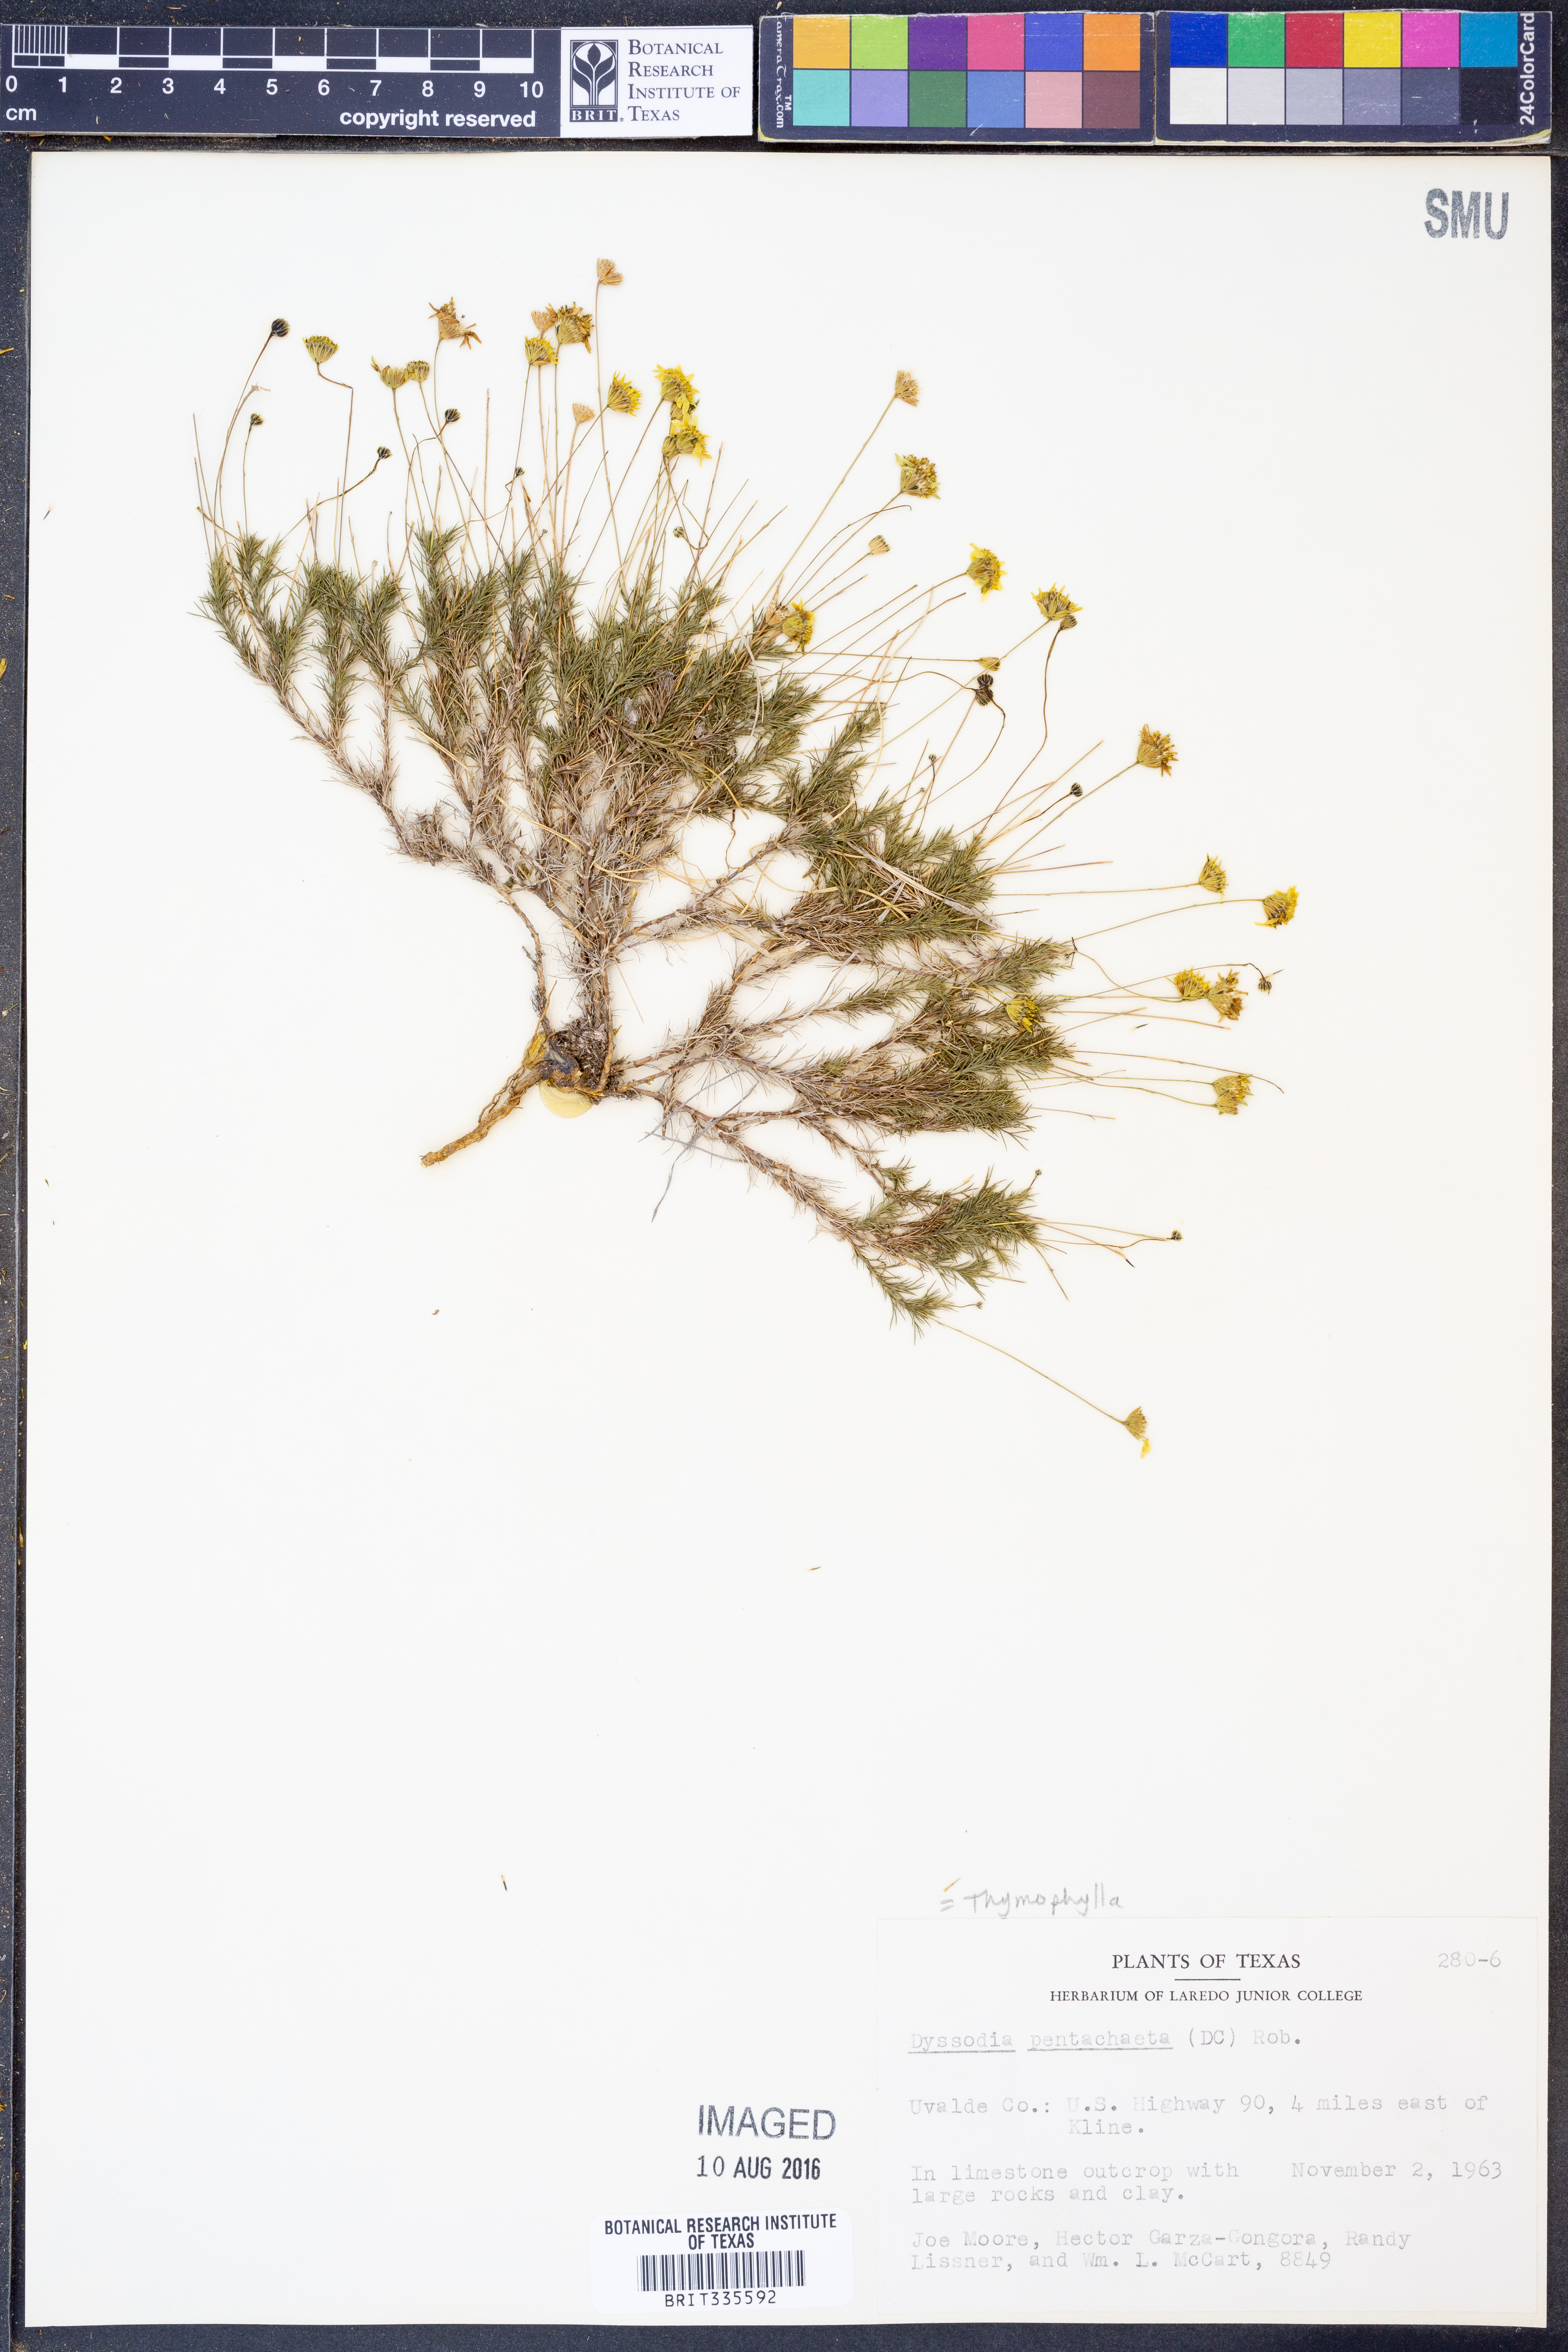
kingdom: Plantae
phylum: Tracheophyta
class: Magnoliopsida
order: Asterales
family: Asteraceae
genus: Thymophylla
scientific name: Thymophylla pentachaeta
